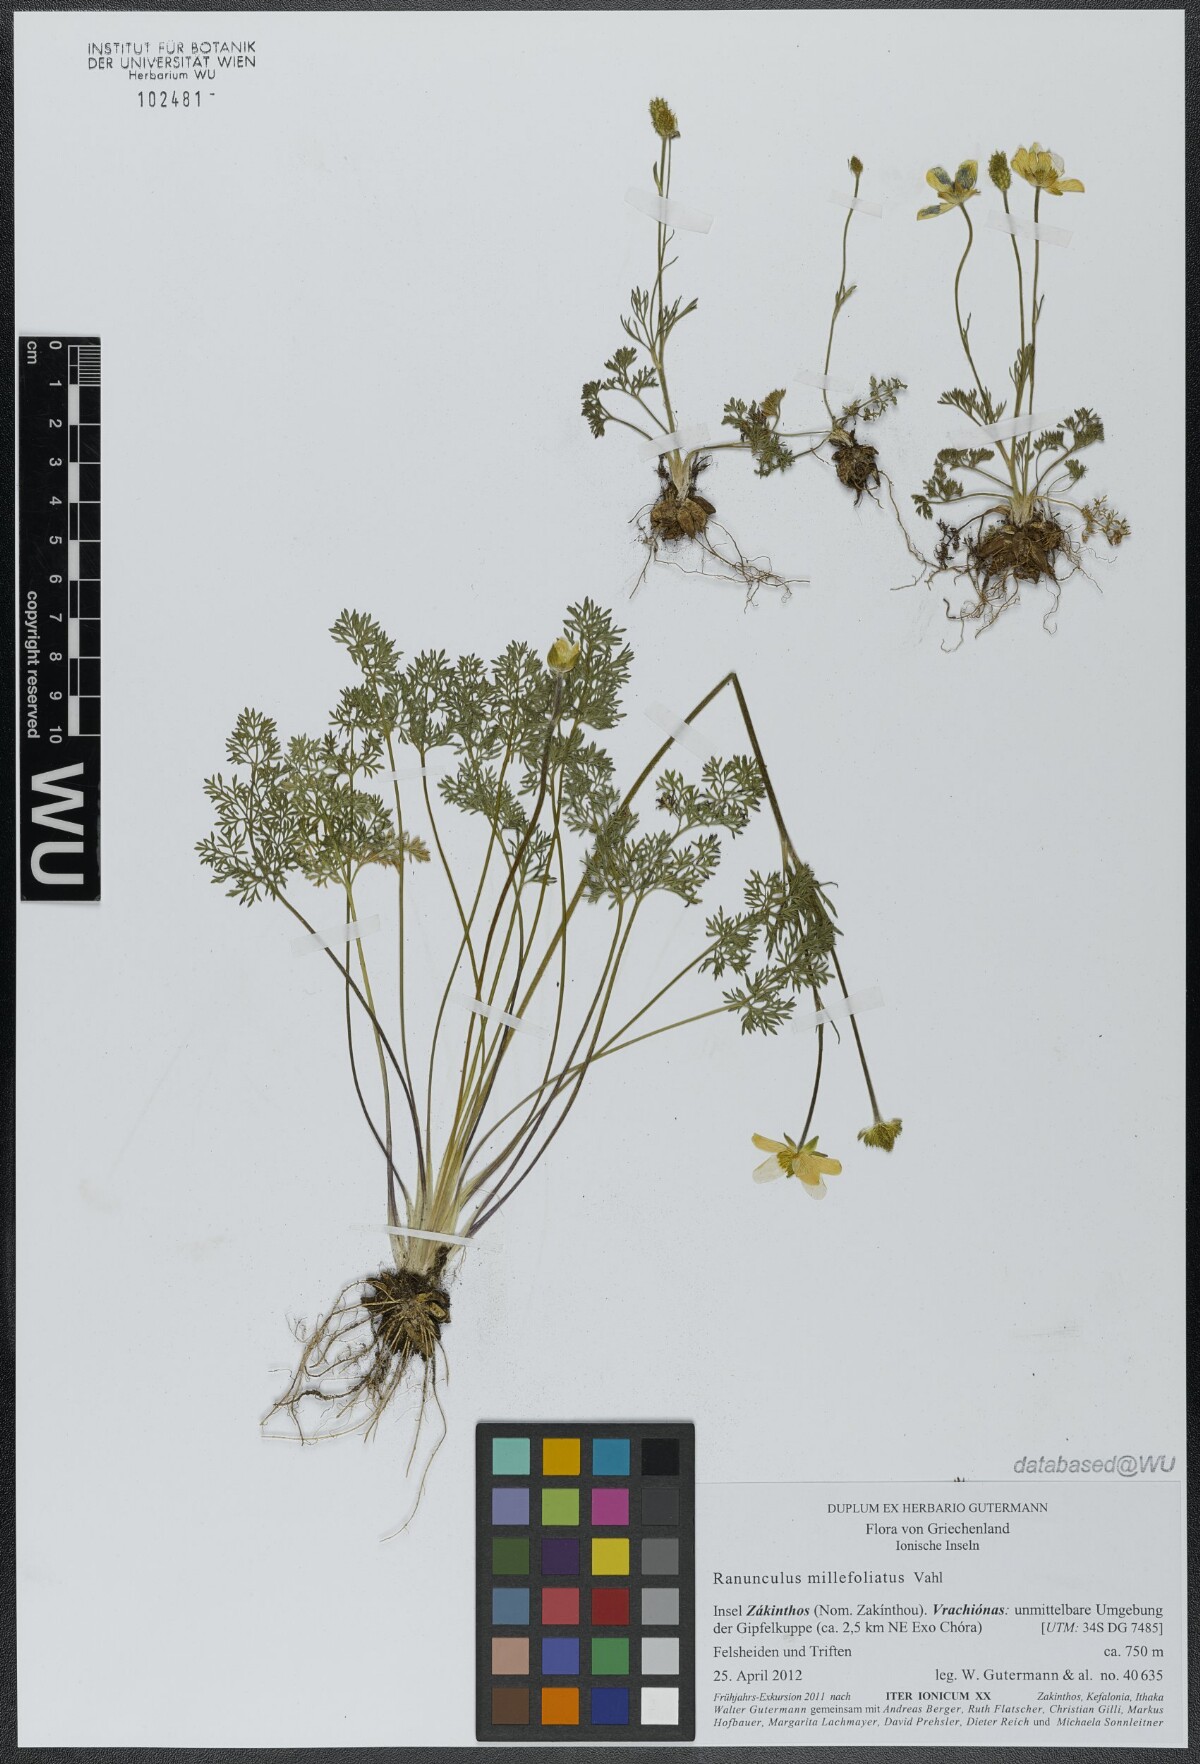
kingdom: Plantae
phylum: Tracheophyta
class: Magnoliopsida
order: Ranunculales
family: Ranunculaceae
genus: Ranunculus
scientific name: Ranunculus millefoliatus
